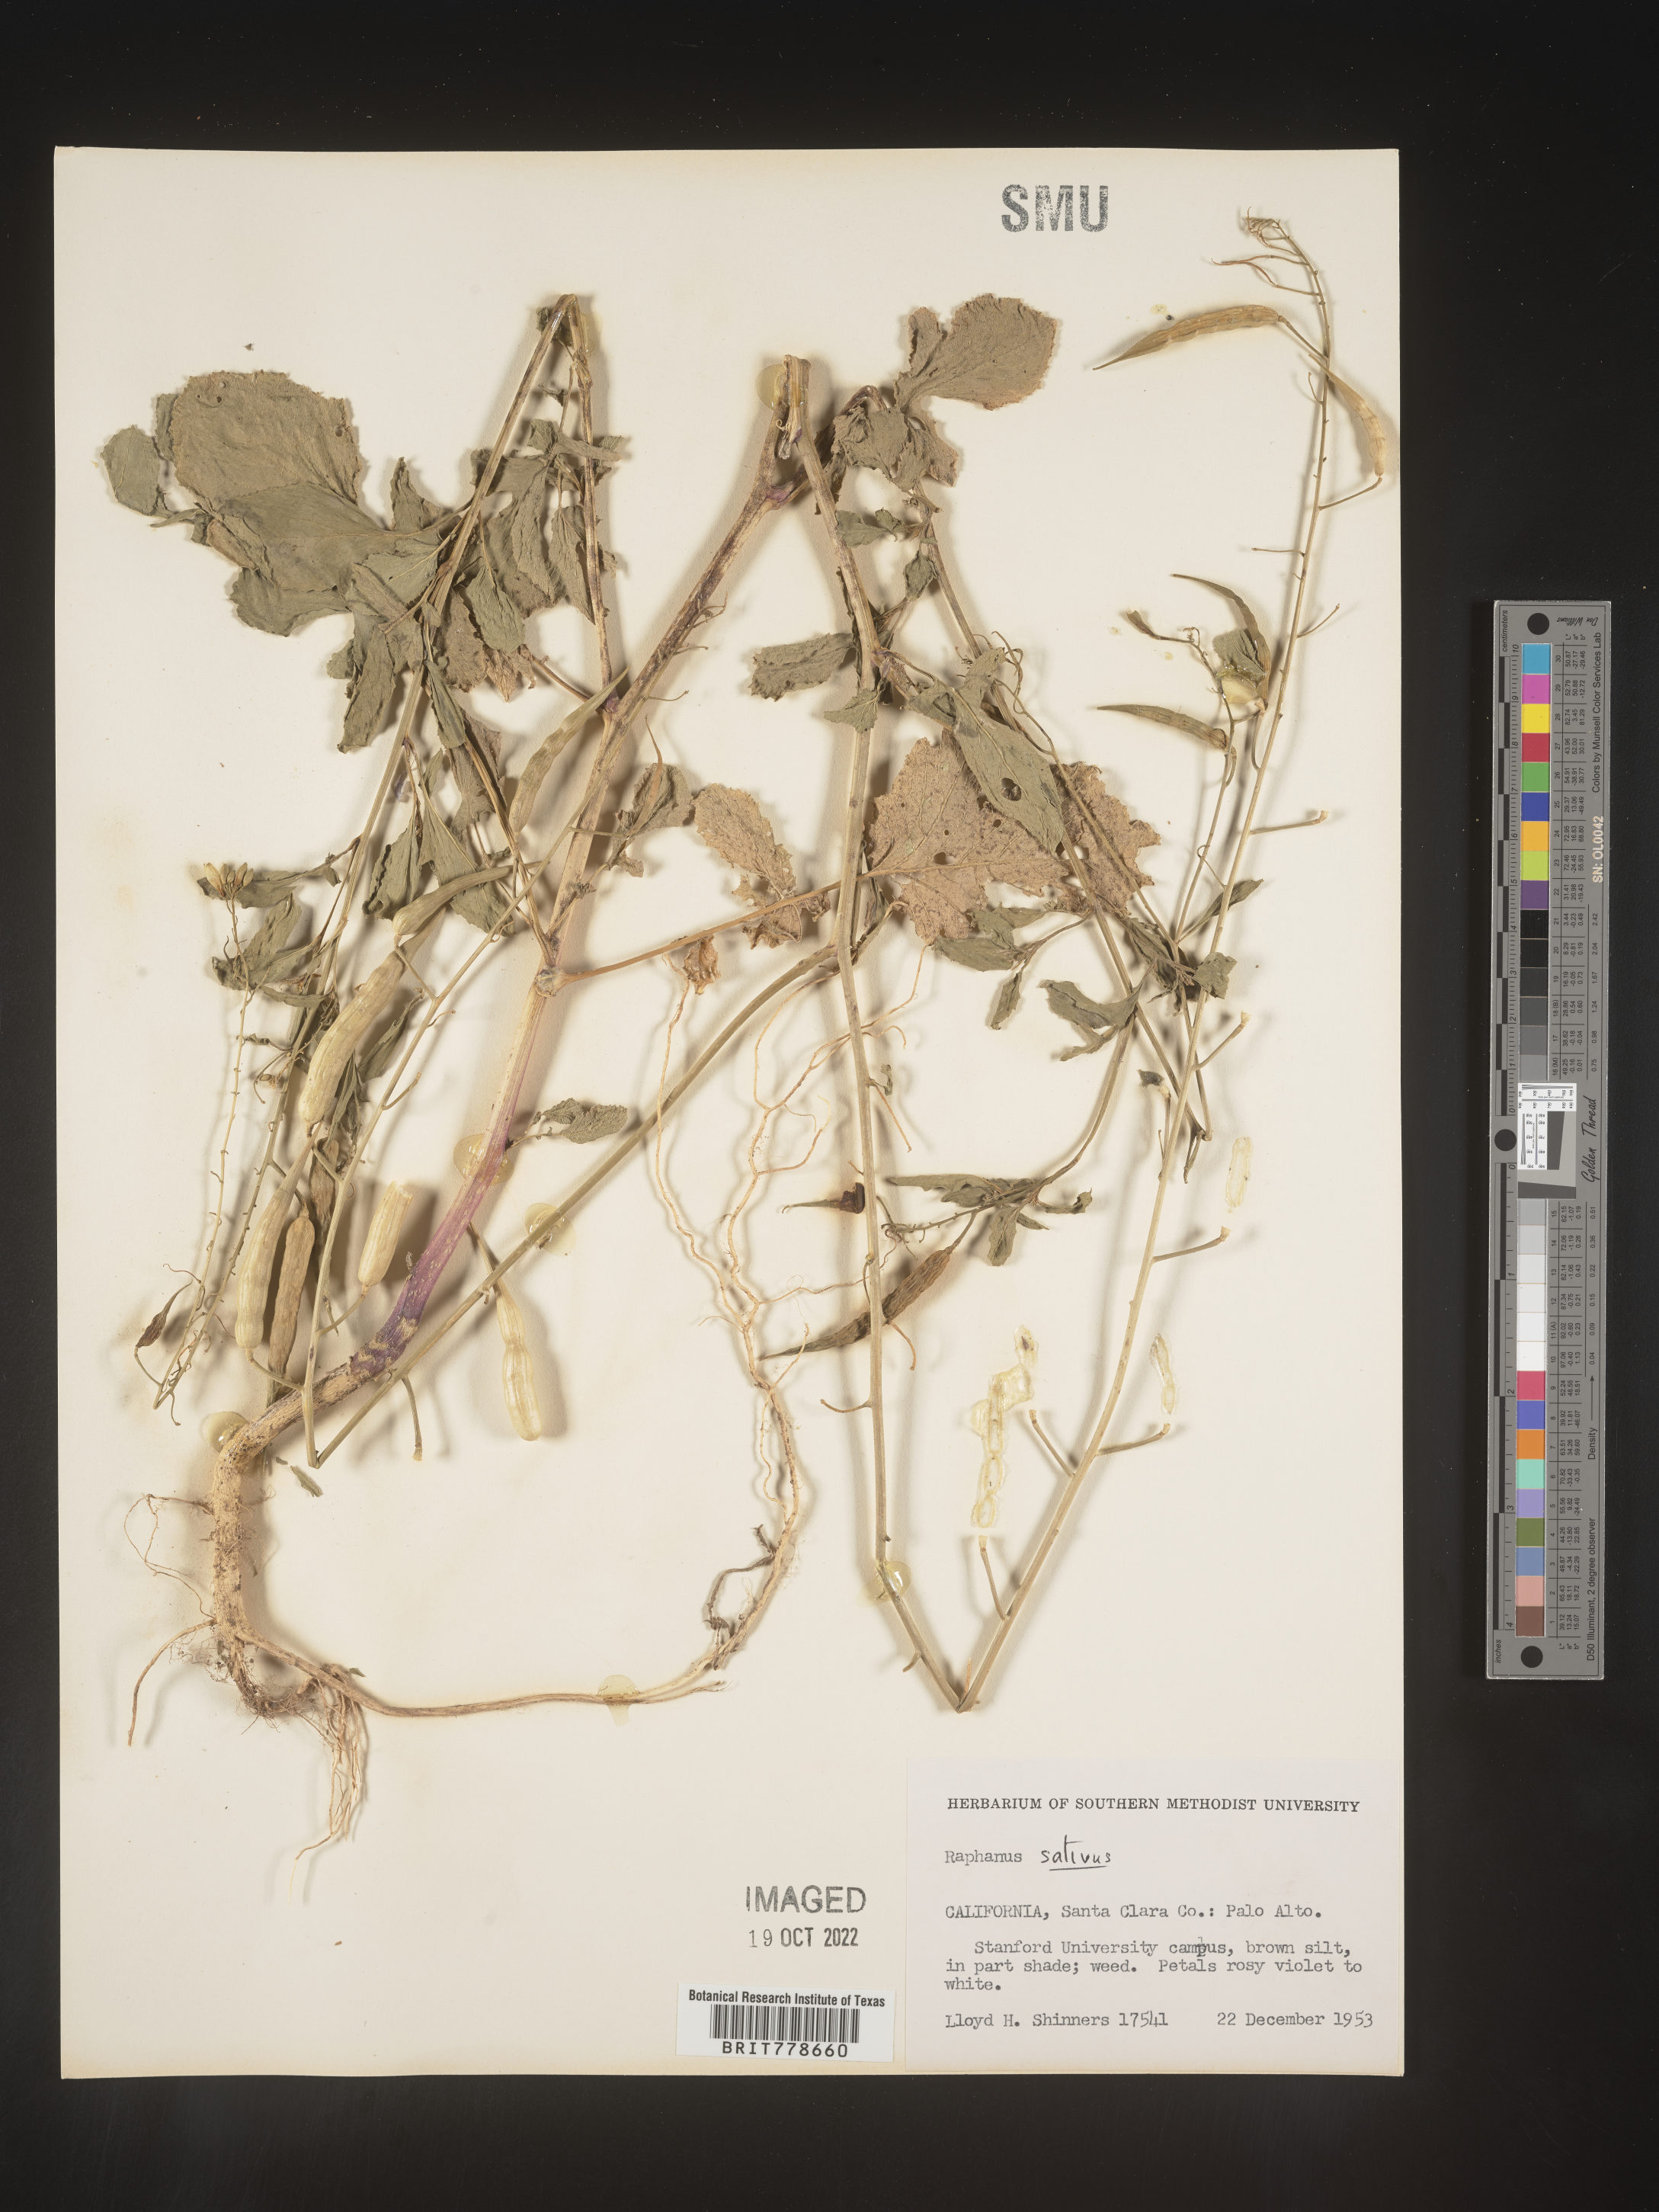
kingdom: Plantae
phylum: Tracheophyta
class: Magnoliopsida
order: Brassicales
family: Brassicaceae
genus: Raphanus
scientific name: Raphanus sativus
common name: Cultivated radish
